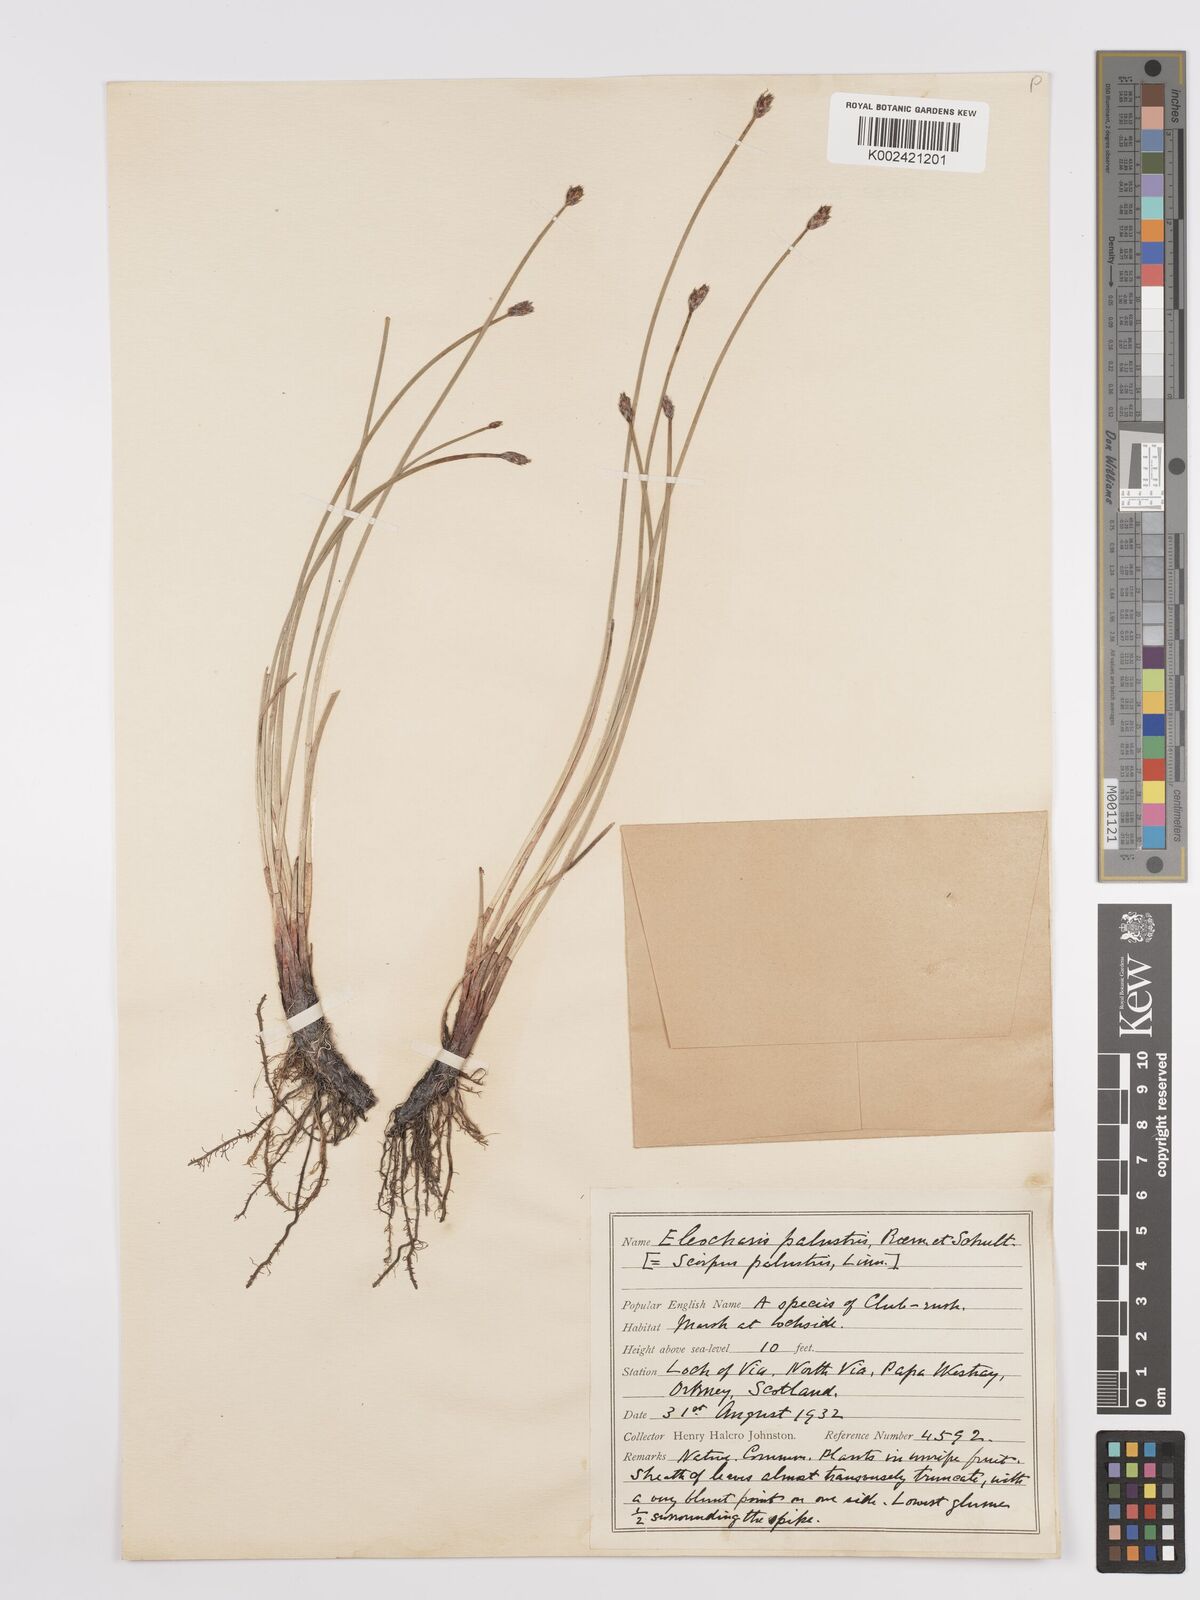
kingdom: Plantae
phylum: Tracheophyta
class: Liliopsida
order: Poales
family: Cyperaceae
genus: Eleocharis
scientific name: Eleocharis palustris
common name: Common spike-rush
